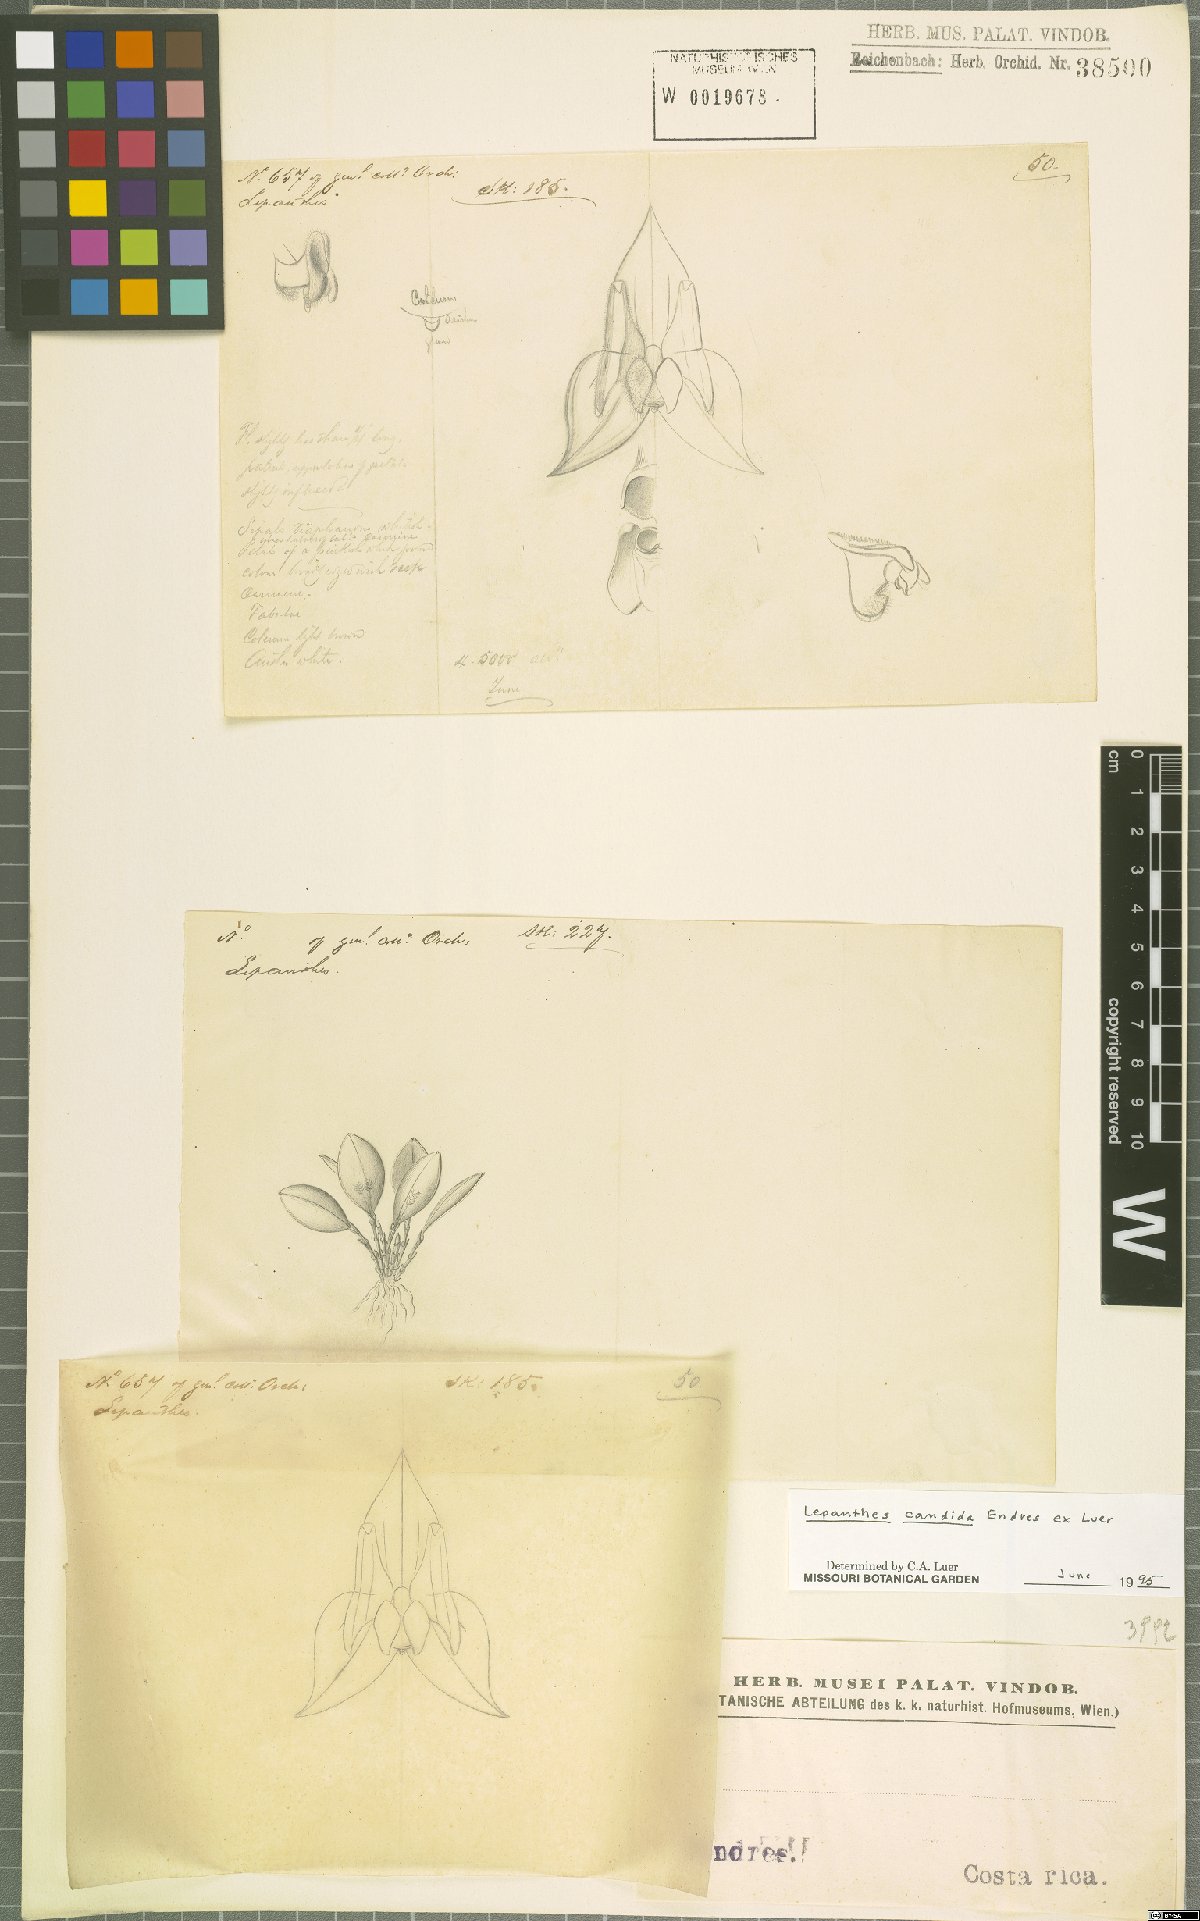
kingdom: Plantae
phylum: Tracheophyta
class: Liliopsida
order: Asparagales
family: Orchidaceae
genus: Lepanthes
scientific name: Lepanthes candida
